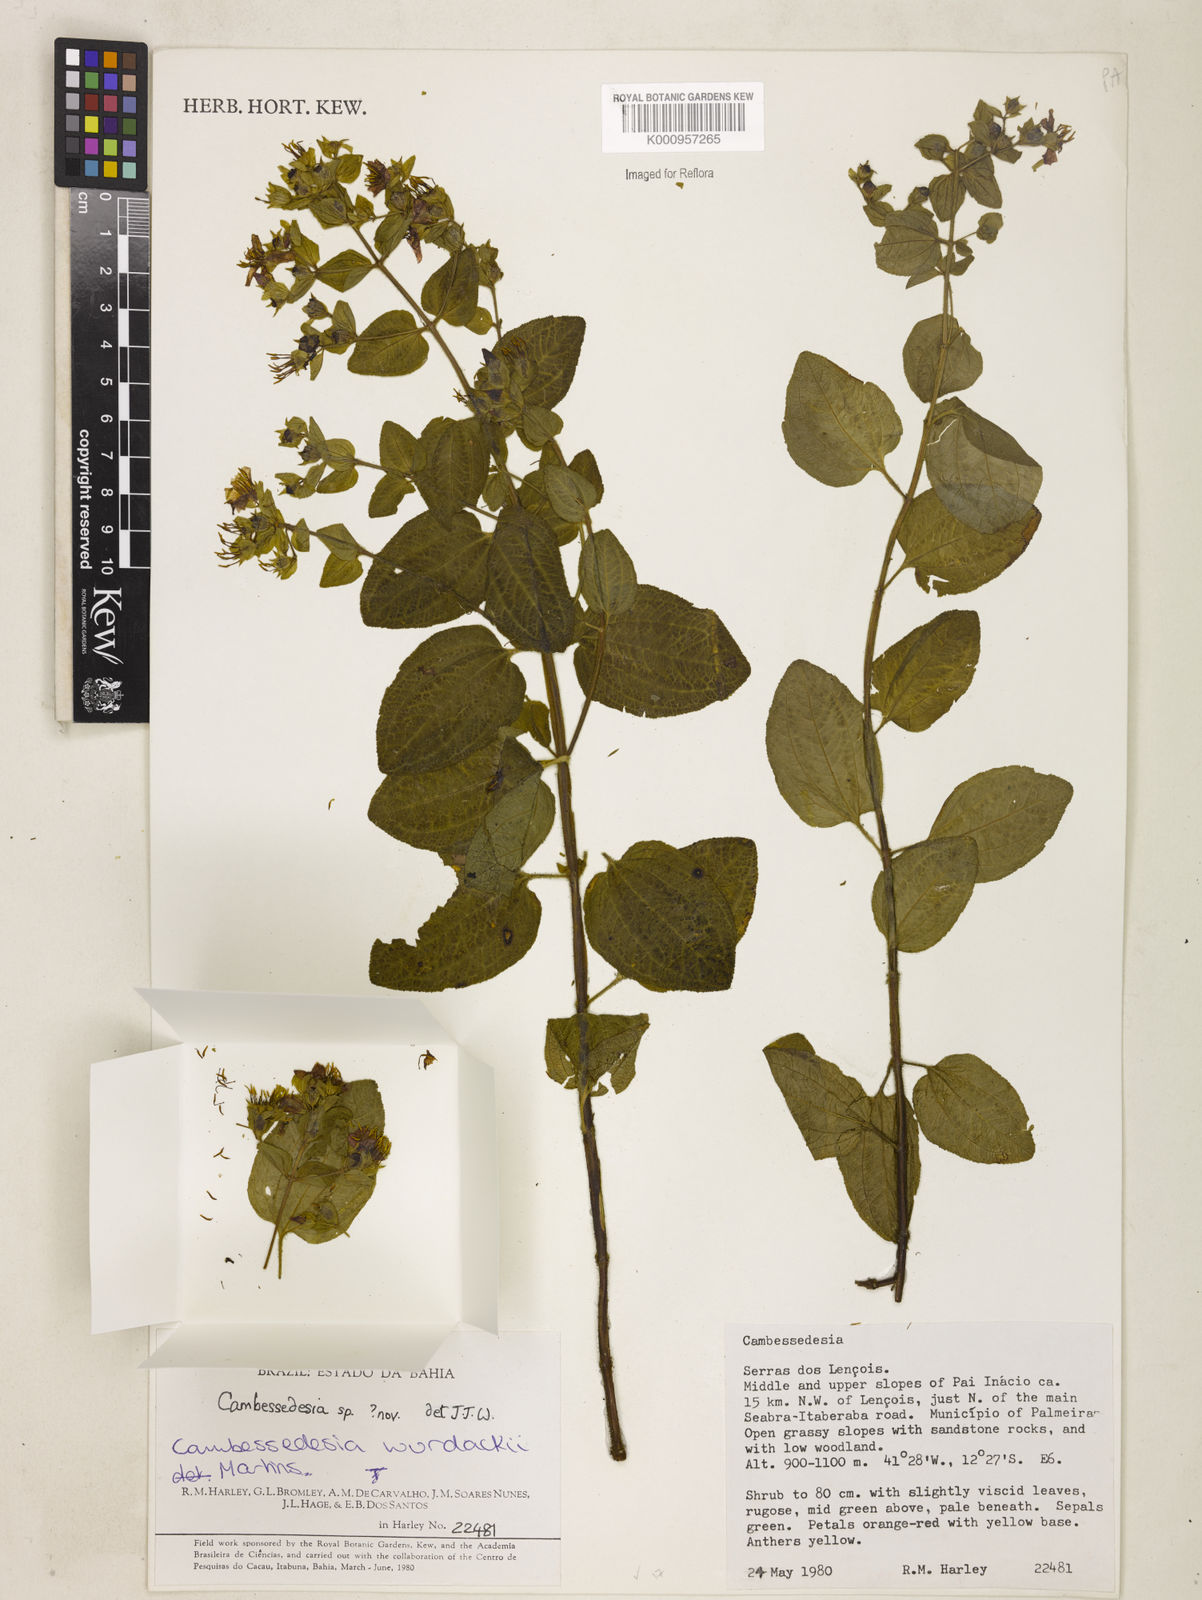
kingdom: Plantae
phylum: Tracheophyta
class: Magnoliopsida
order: Myrtales
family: Melastomataceae
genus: Cambessedesia
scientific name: Cambessedesia wurdackii
